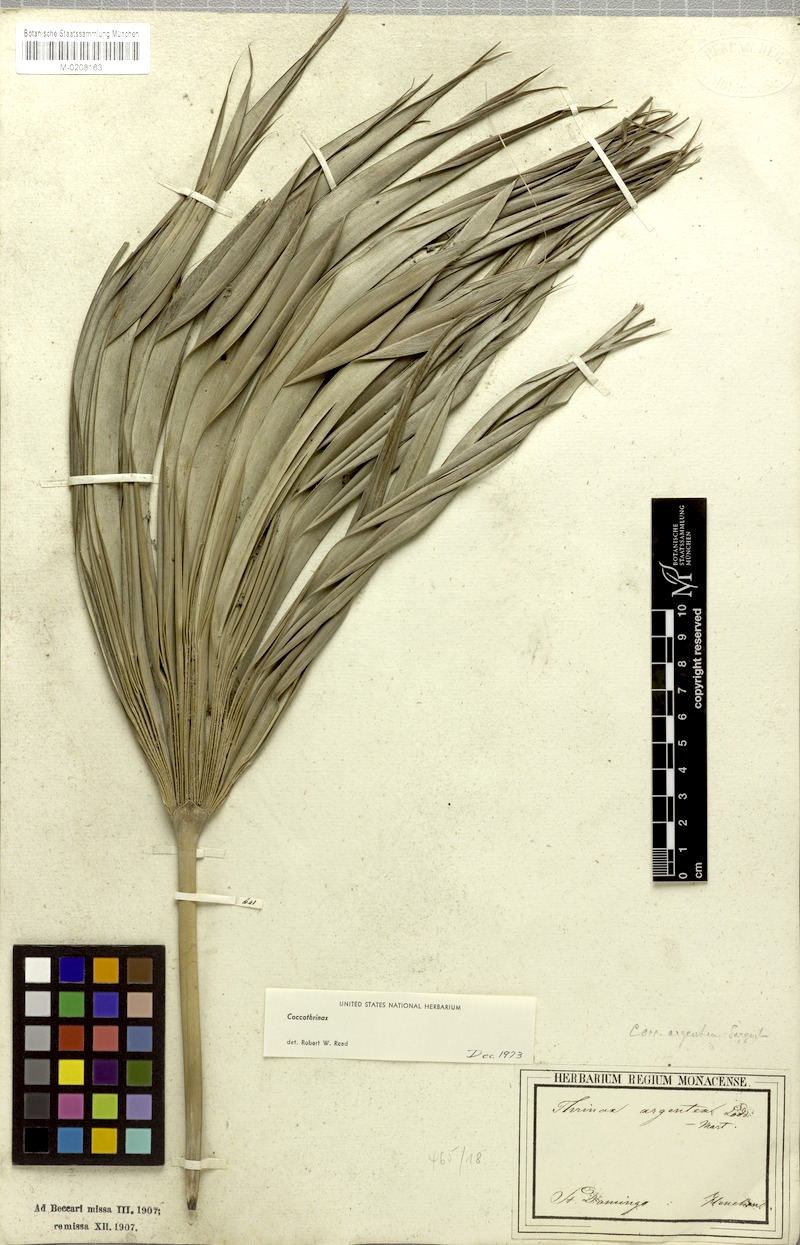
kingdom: Plantae
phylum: Tracheophyta
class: Liliopsida
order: Arecales
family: Arecaceae
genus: Coccothrinax
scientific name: Coccothrinax argentea
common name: Broom palm
